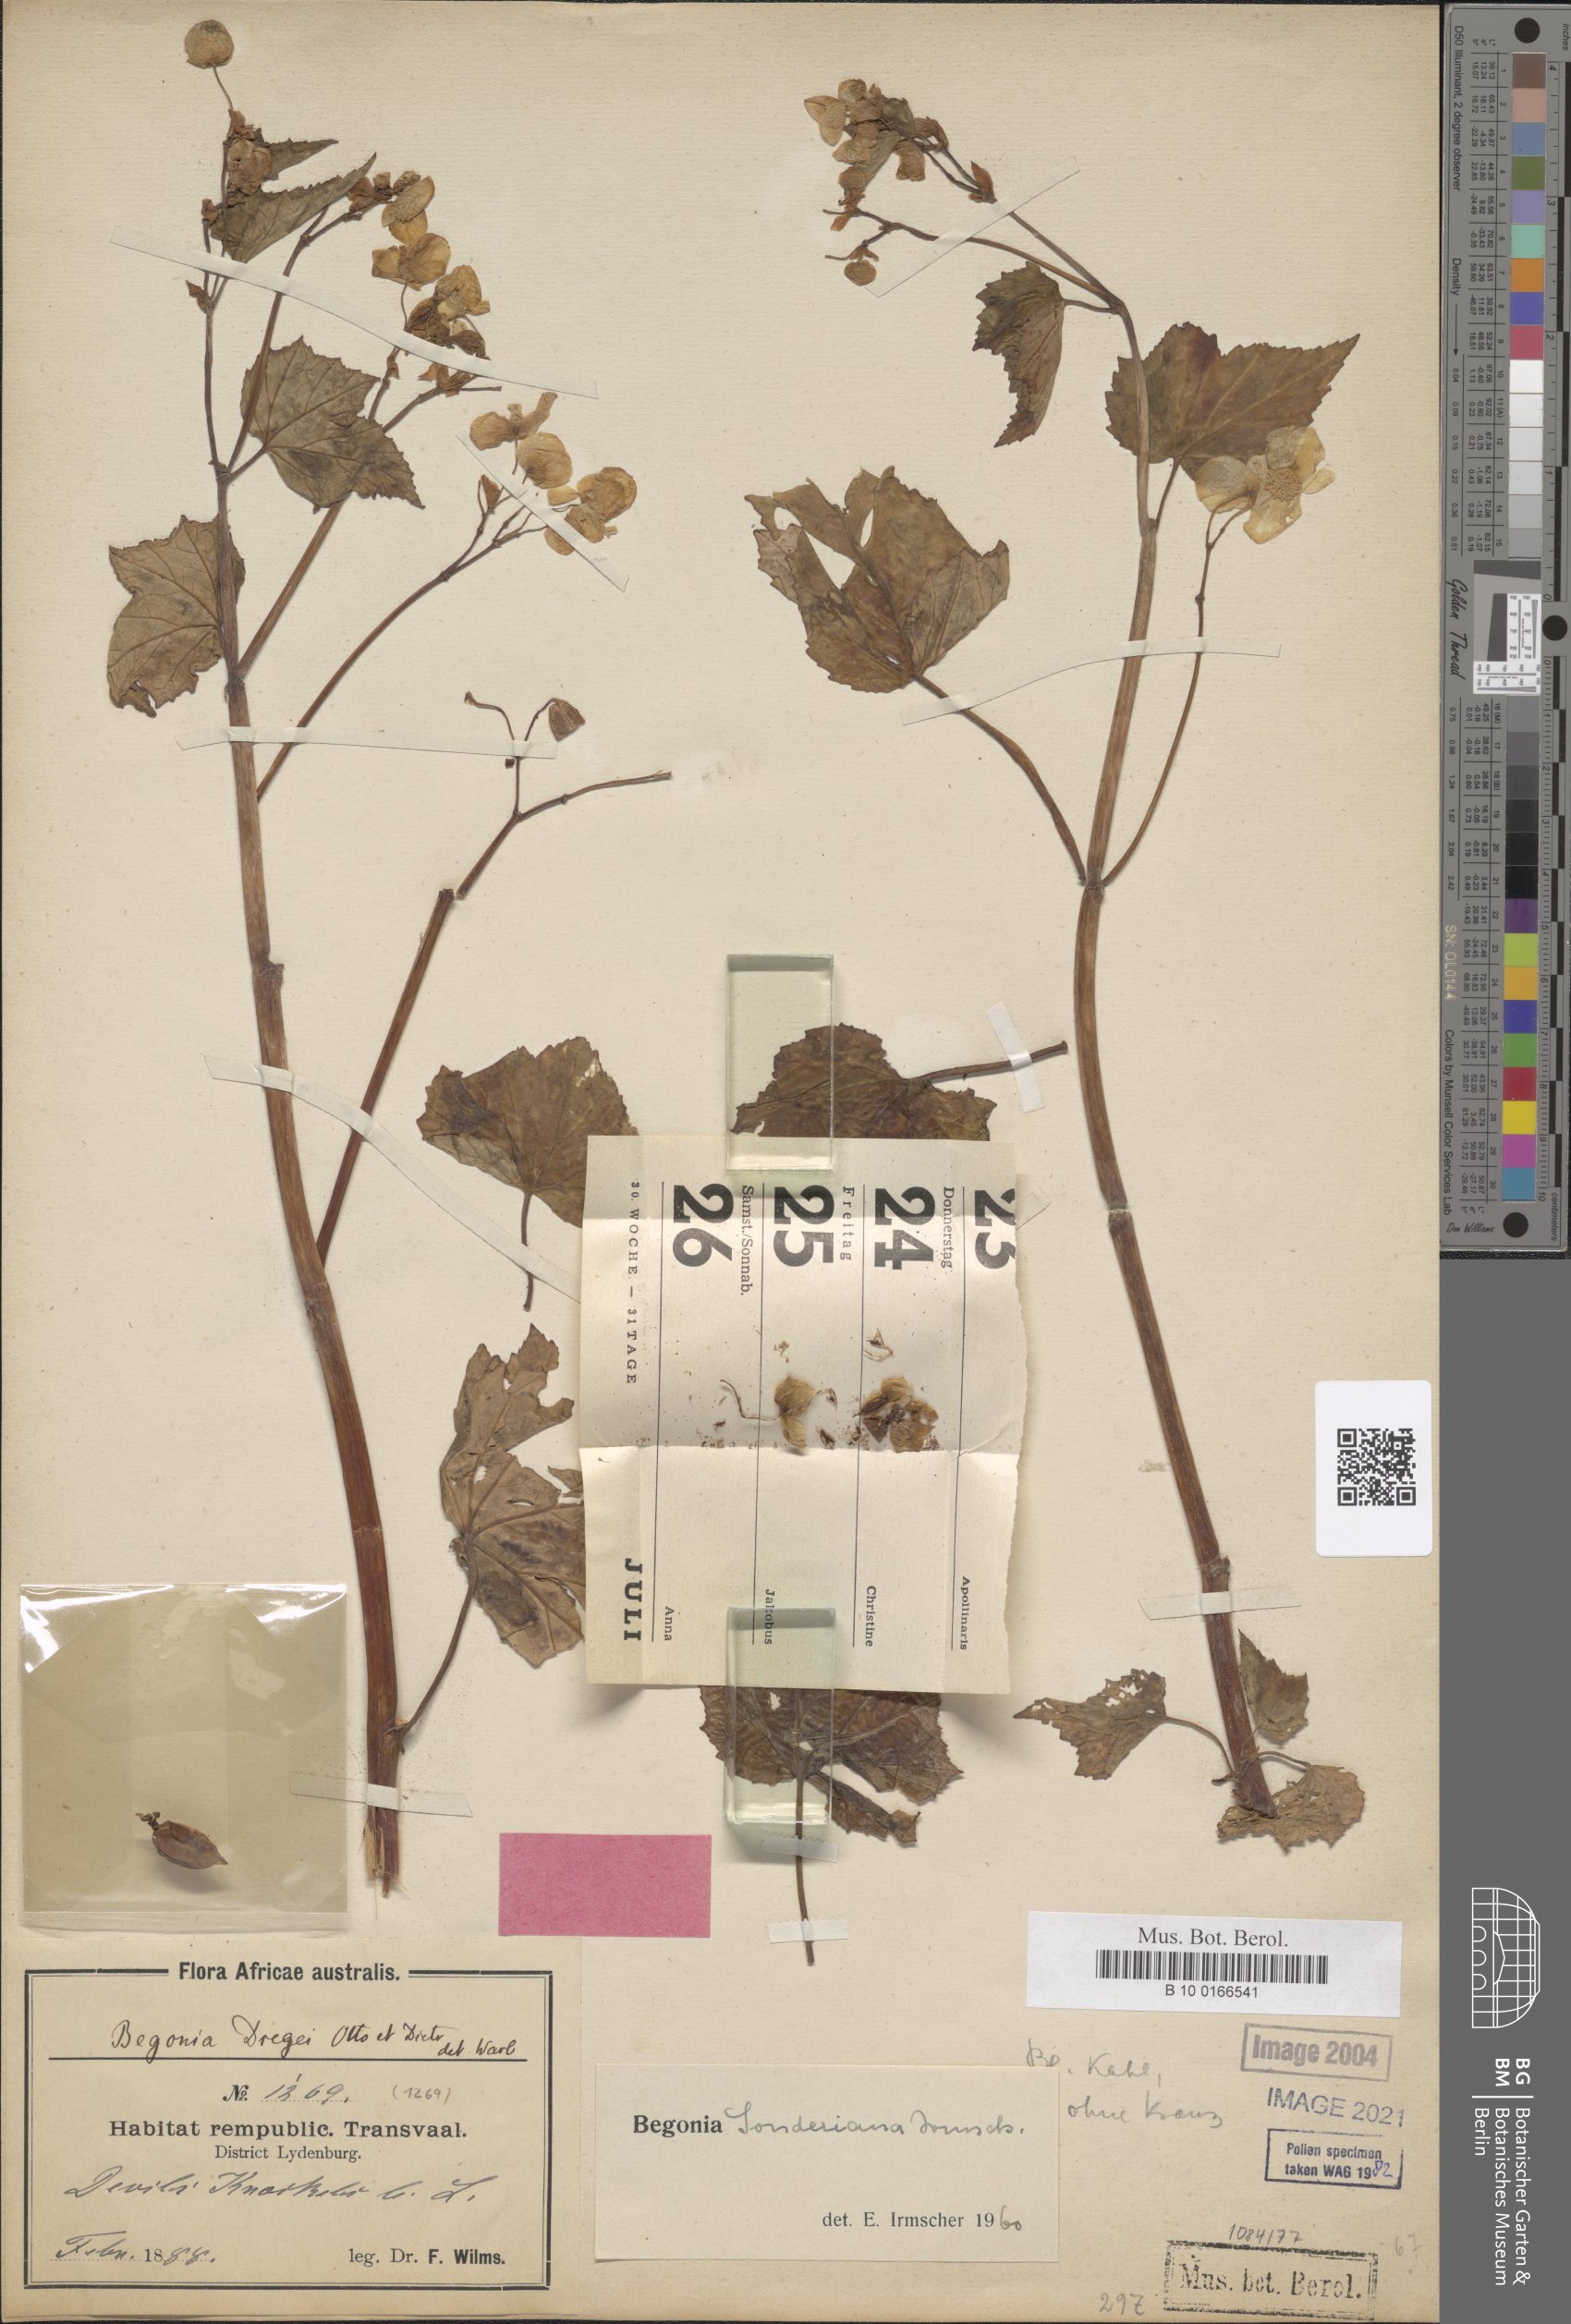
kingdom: Plantae
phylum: Tracheophyta
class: Magnoliopsida
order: Cucurbitales
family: Begoniaceae
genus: Begonia
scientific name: Begonia sonderiana
